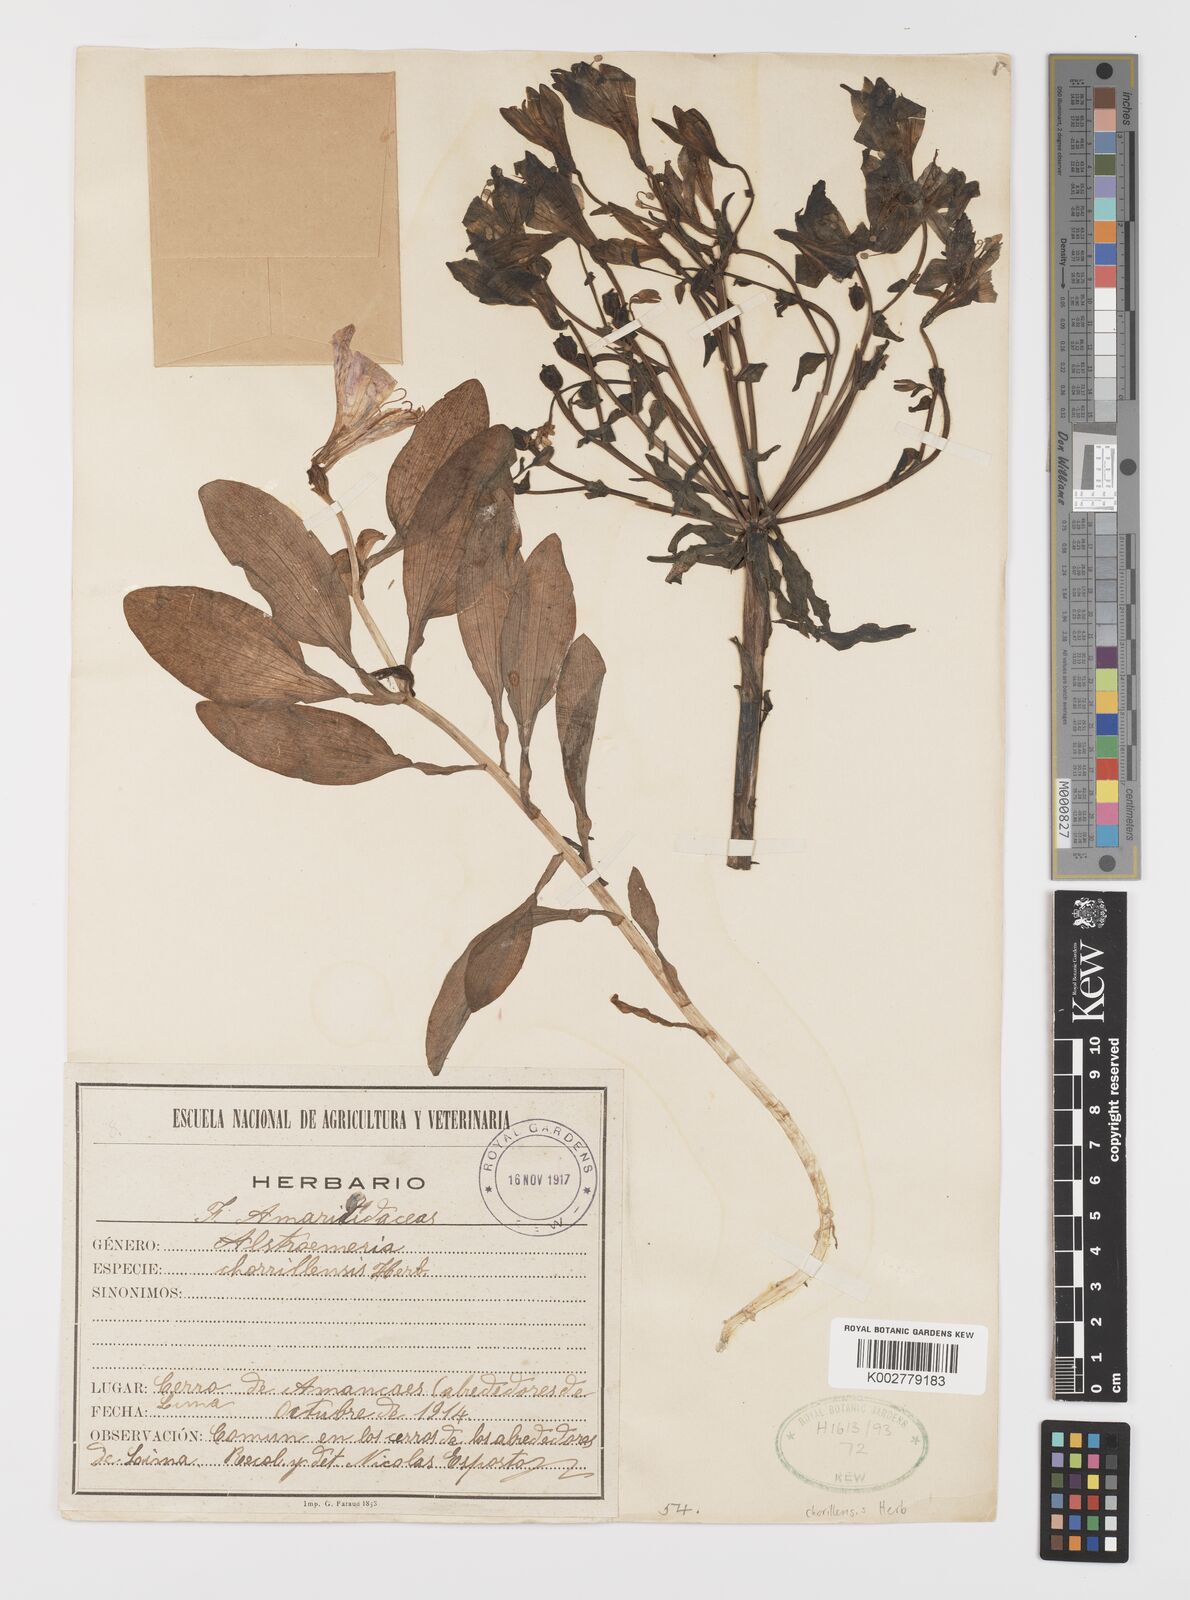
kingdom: Plantae
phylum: Tracheophyta
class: Liliopsida
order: Liliales
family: Alstroemeriaceae
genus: Alstroemeria
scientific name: Alstroemeria presliana
